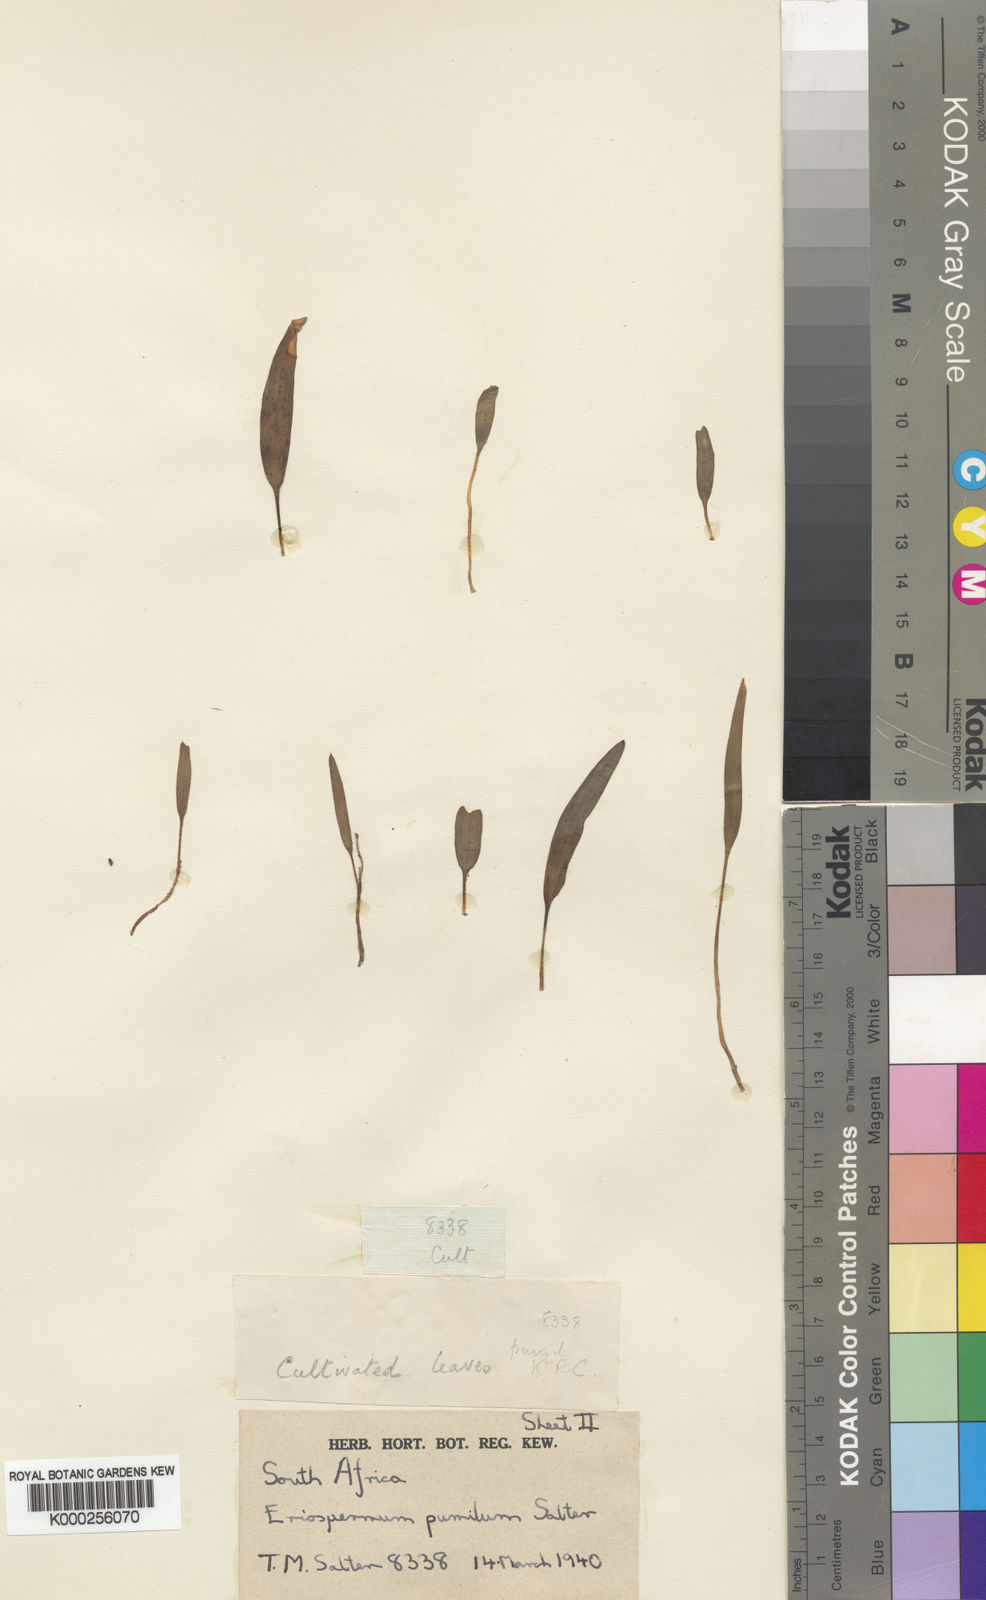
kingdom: Plantae
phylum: Tracheophyta
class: Liliopsida
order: Asparagales
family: Asparagaceae
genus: Eriospermum
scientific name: Eriospermum pumilum
